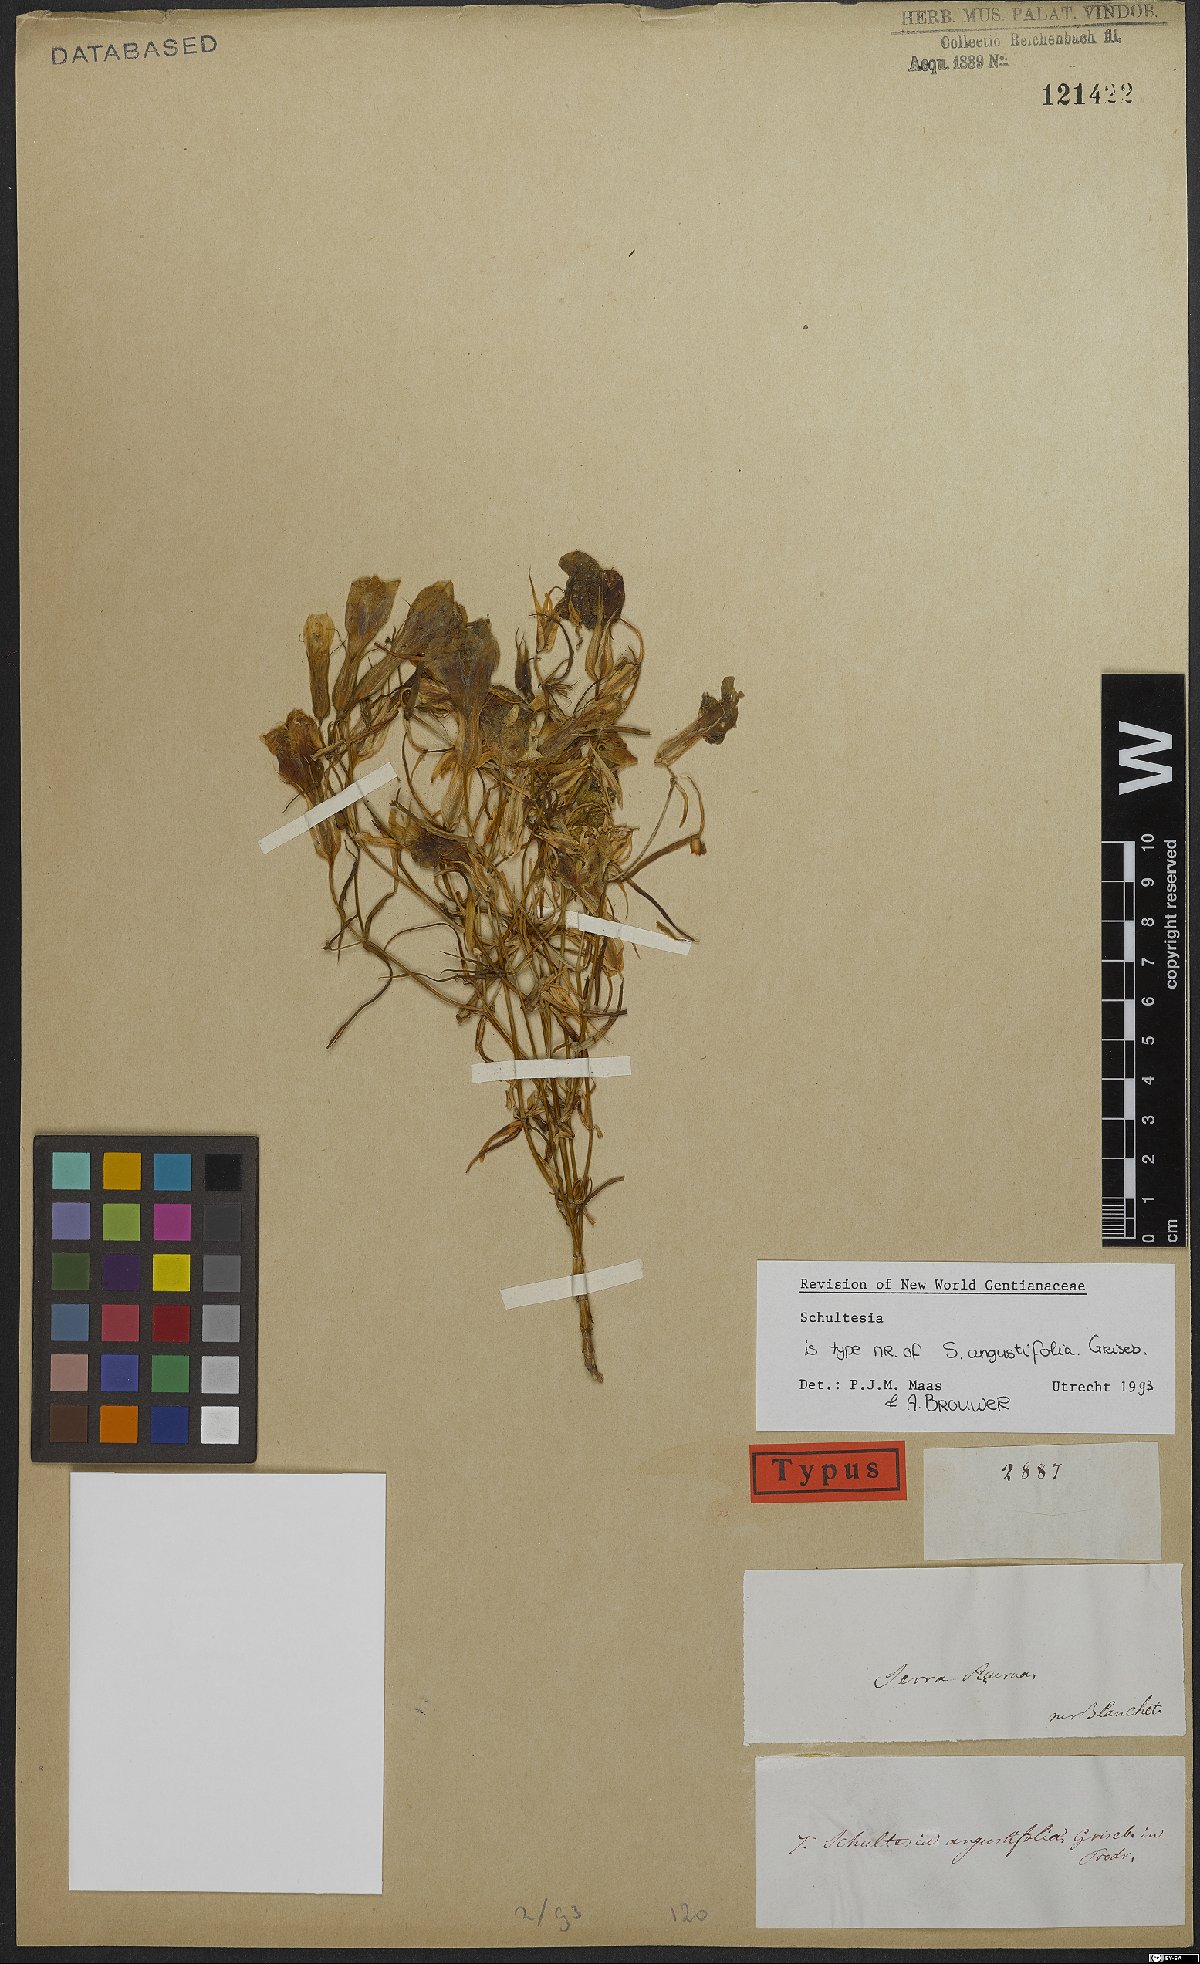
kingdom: Plantae
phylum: Tracheophyta
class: Magnoliopsida
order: Gentianales
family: Gentianaceae
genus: Schultesia
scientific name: Schultesia angustifolia
